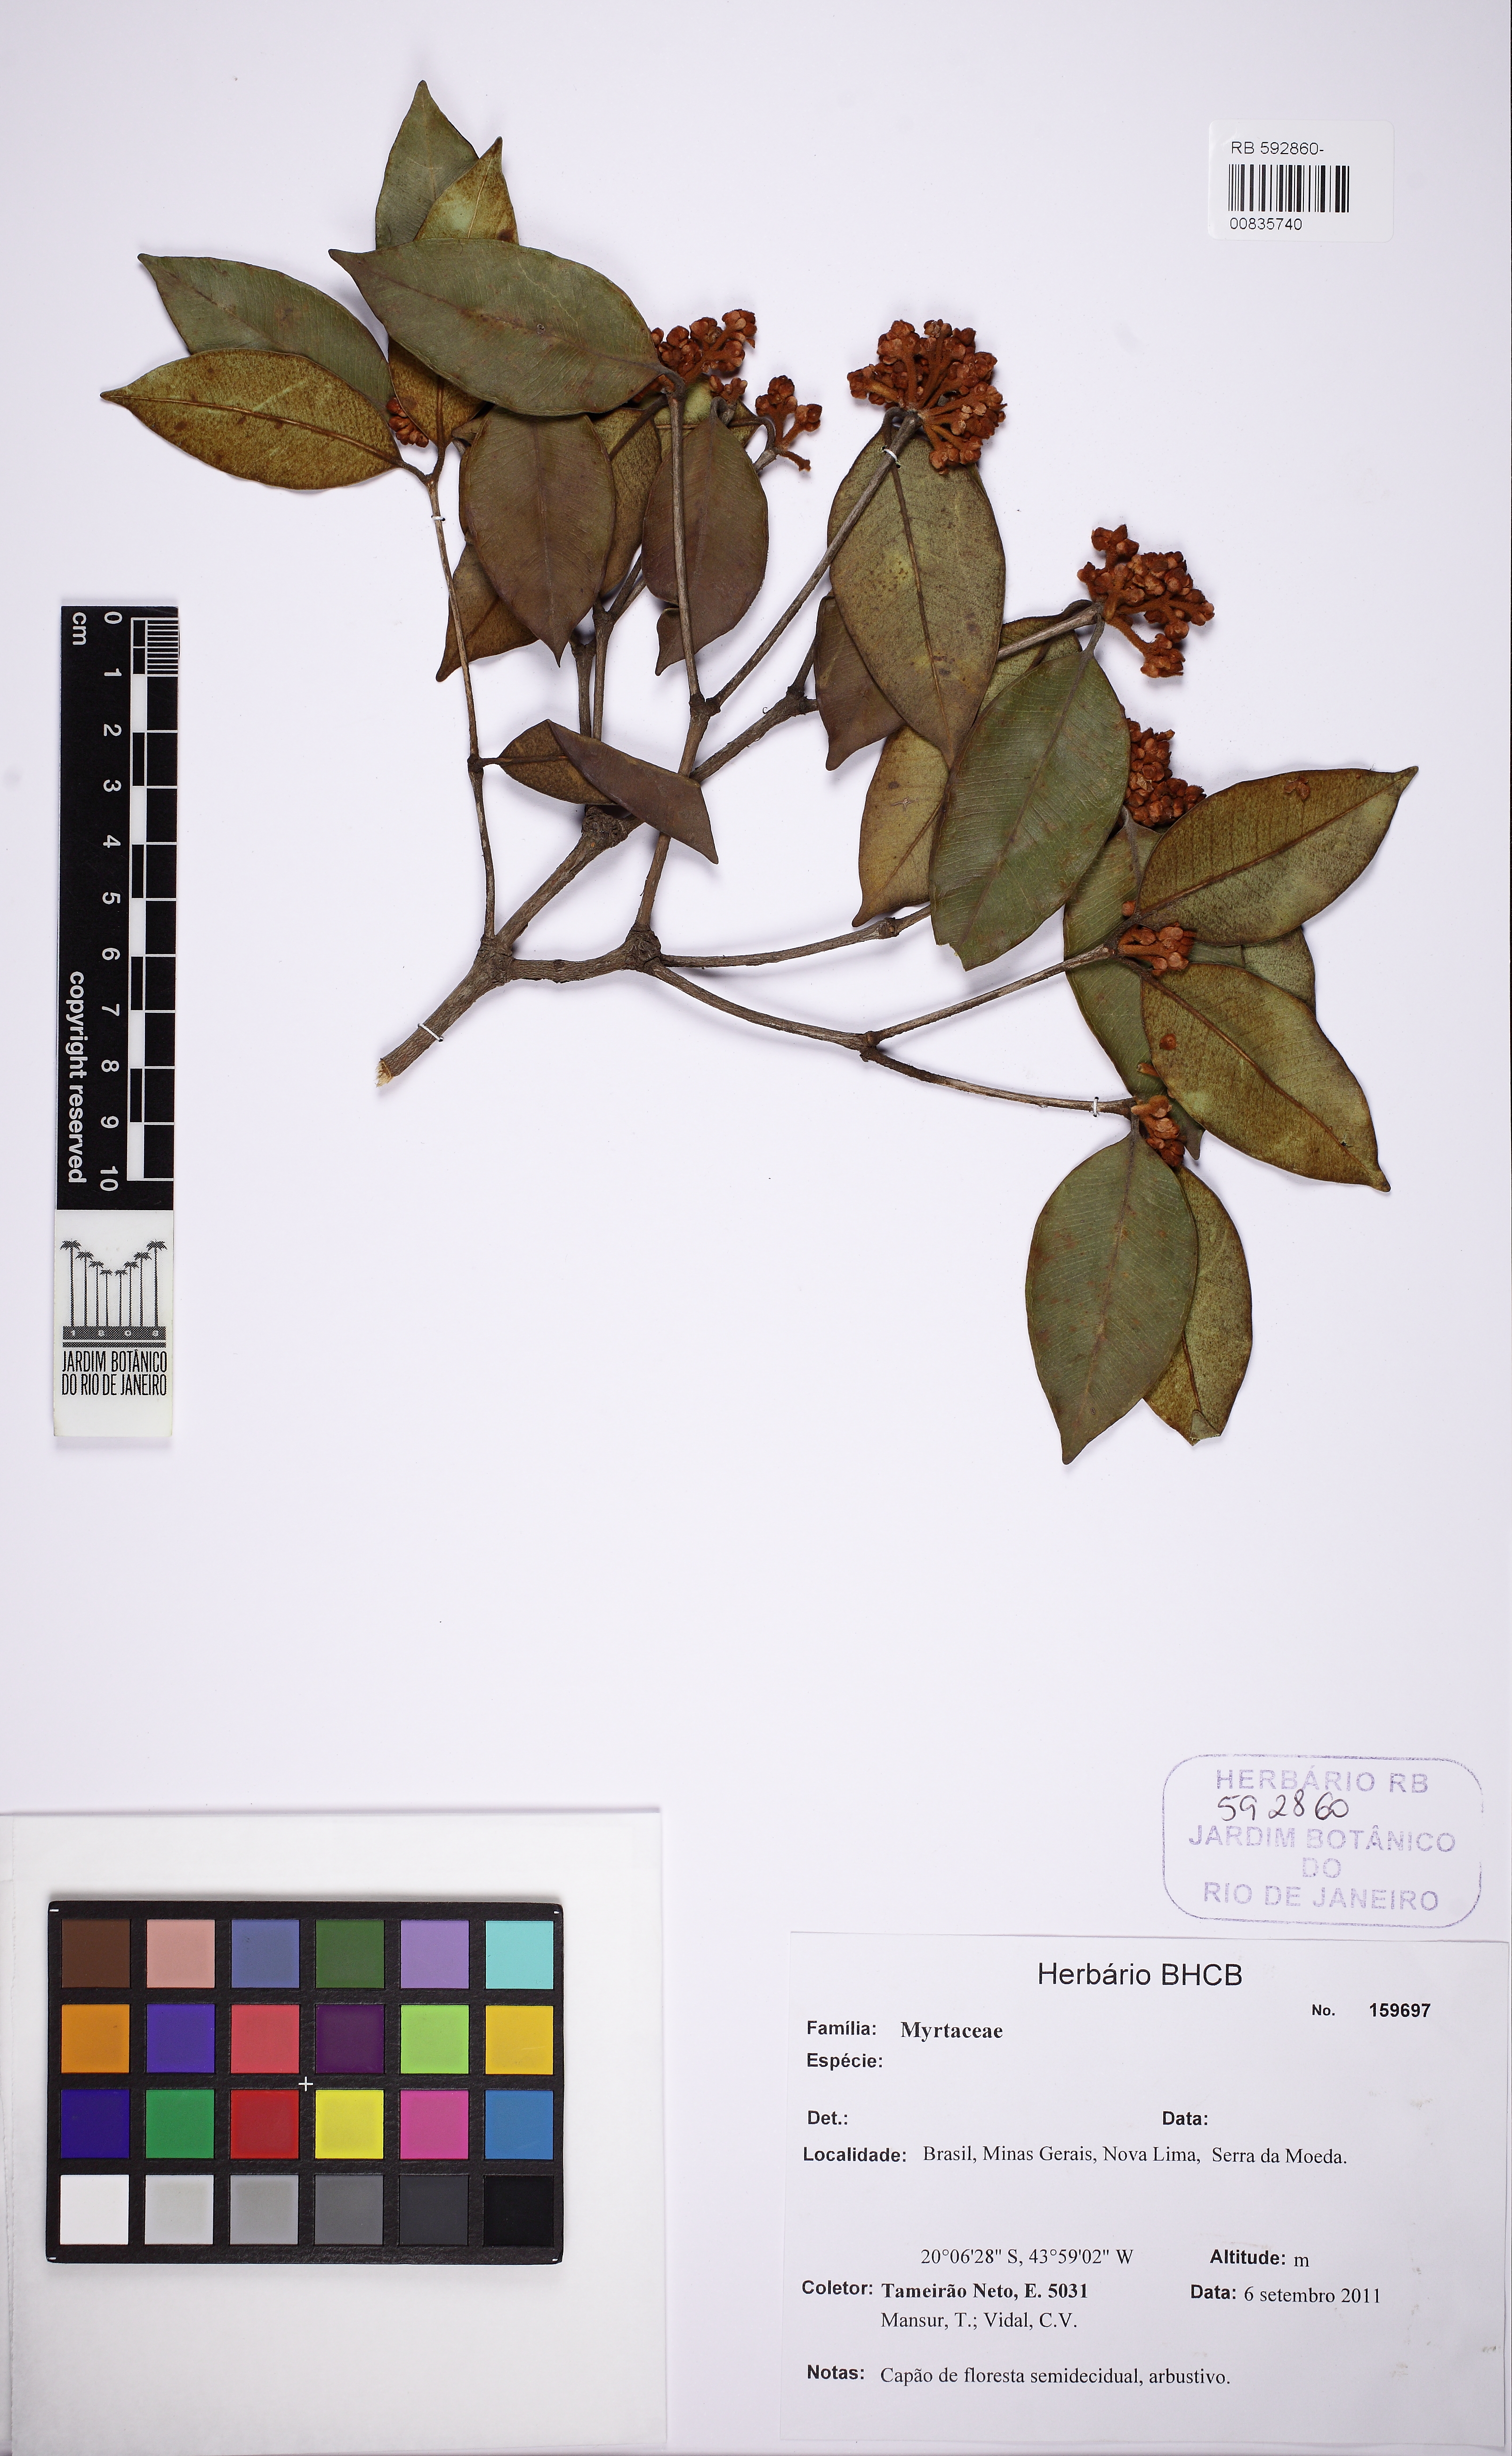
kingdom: Plantae
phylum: Tracheophyta
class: Magnoliopsida
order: Myrtales
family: Myrtaceae
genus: Myrcia
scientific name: Myrcia mutabilis
